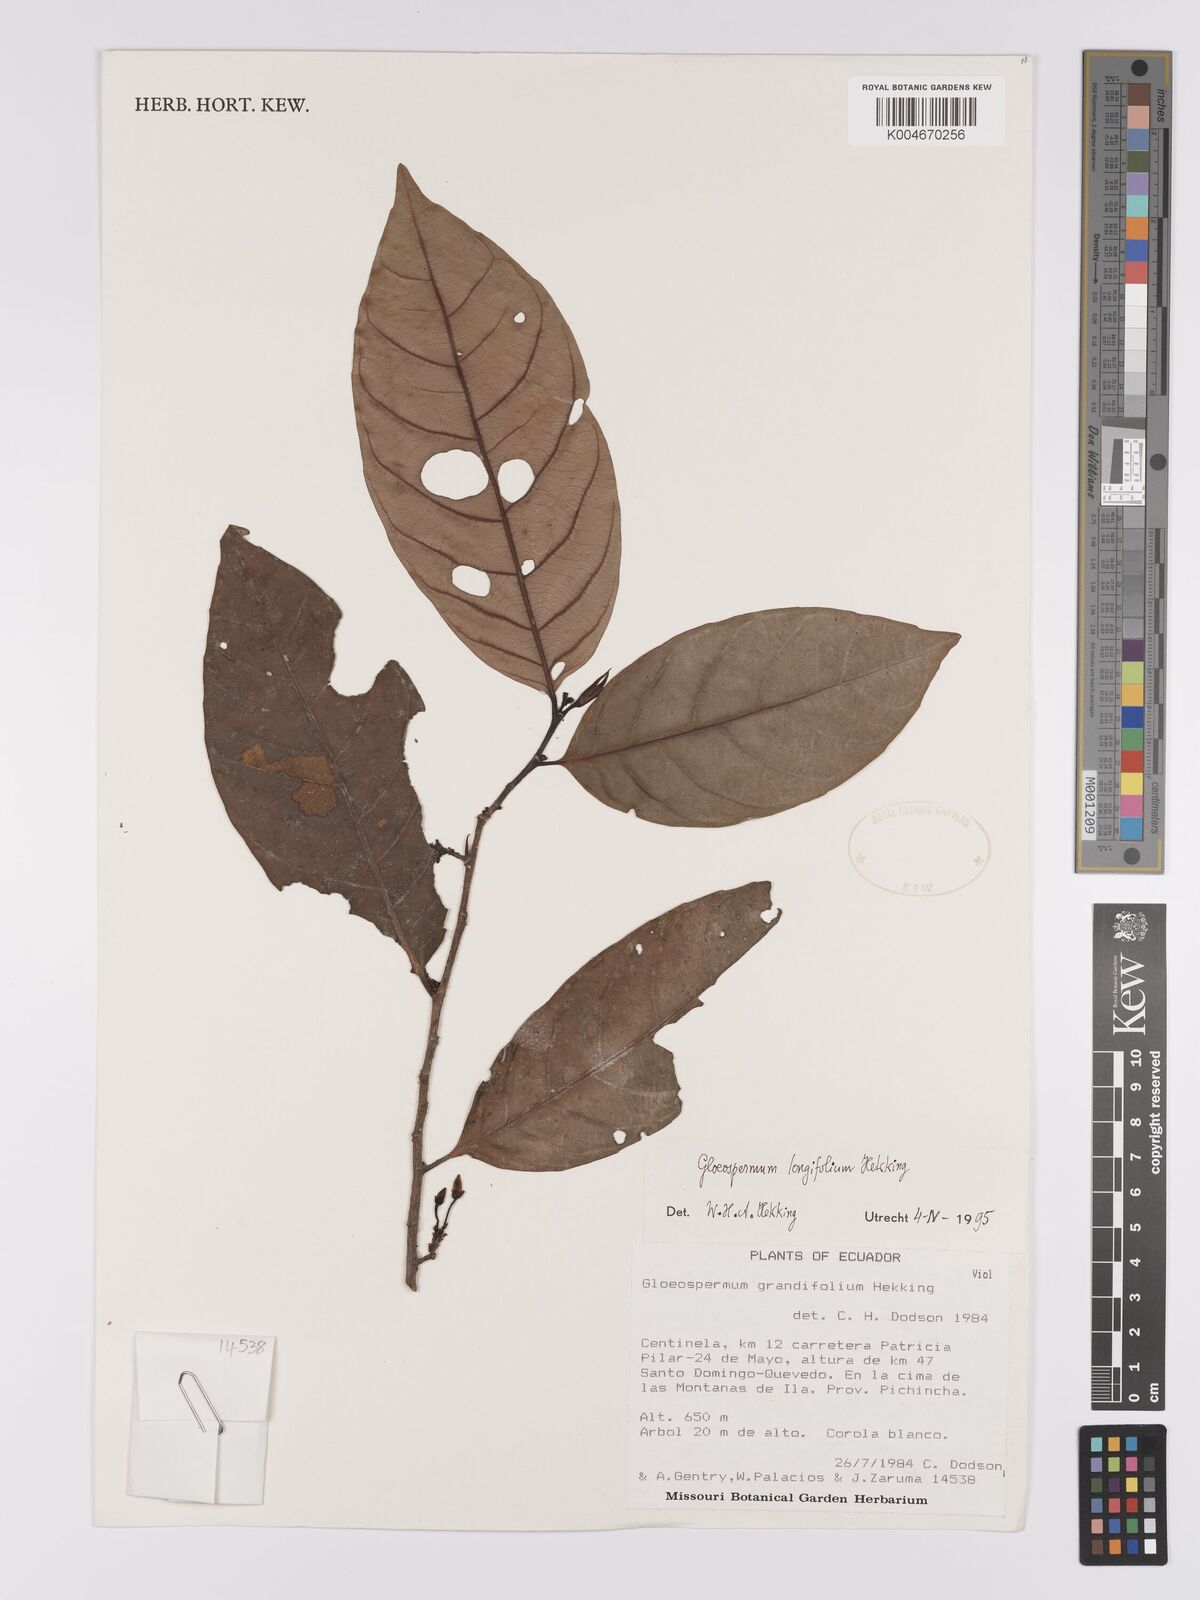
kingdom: Plantae
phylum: Tracheophyta
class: Magnoliopsida
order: Malpighiales
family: Violaceae
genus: Gloeospermum
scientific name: Gloeospermum longifolium
